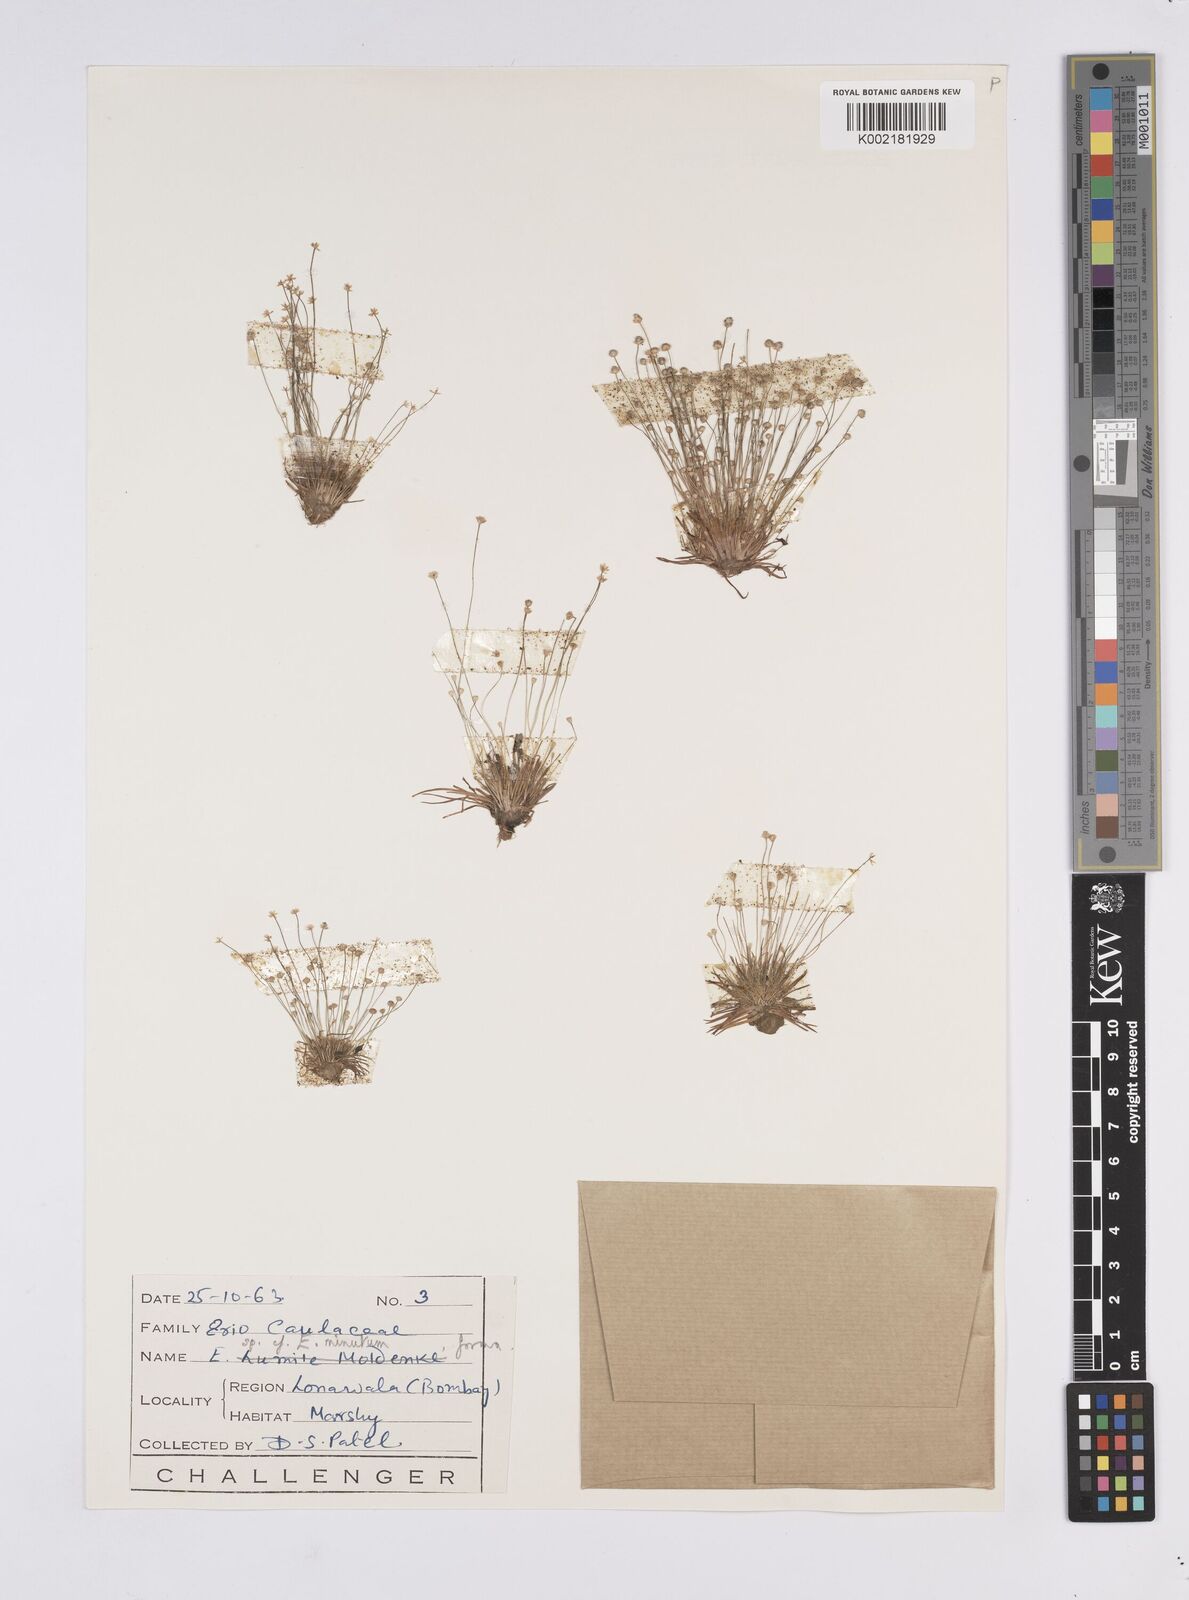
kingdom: Plantae
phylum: Tracheophyta
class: Liliopsida
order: Poales
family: Eriocaulaceae
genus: Eriocaulon
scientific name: Eriocaulon minutum
